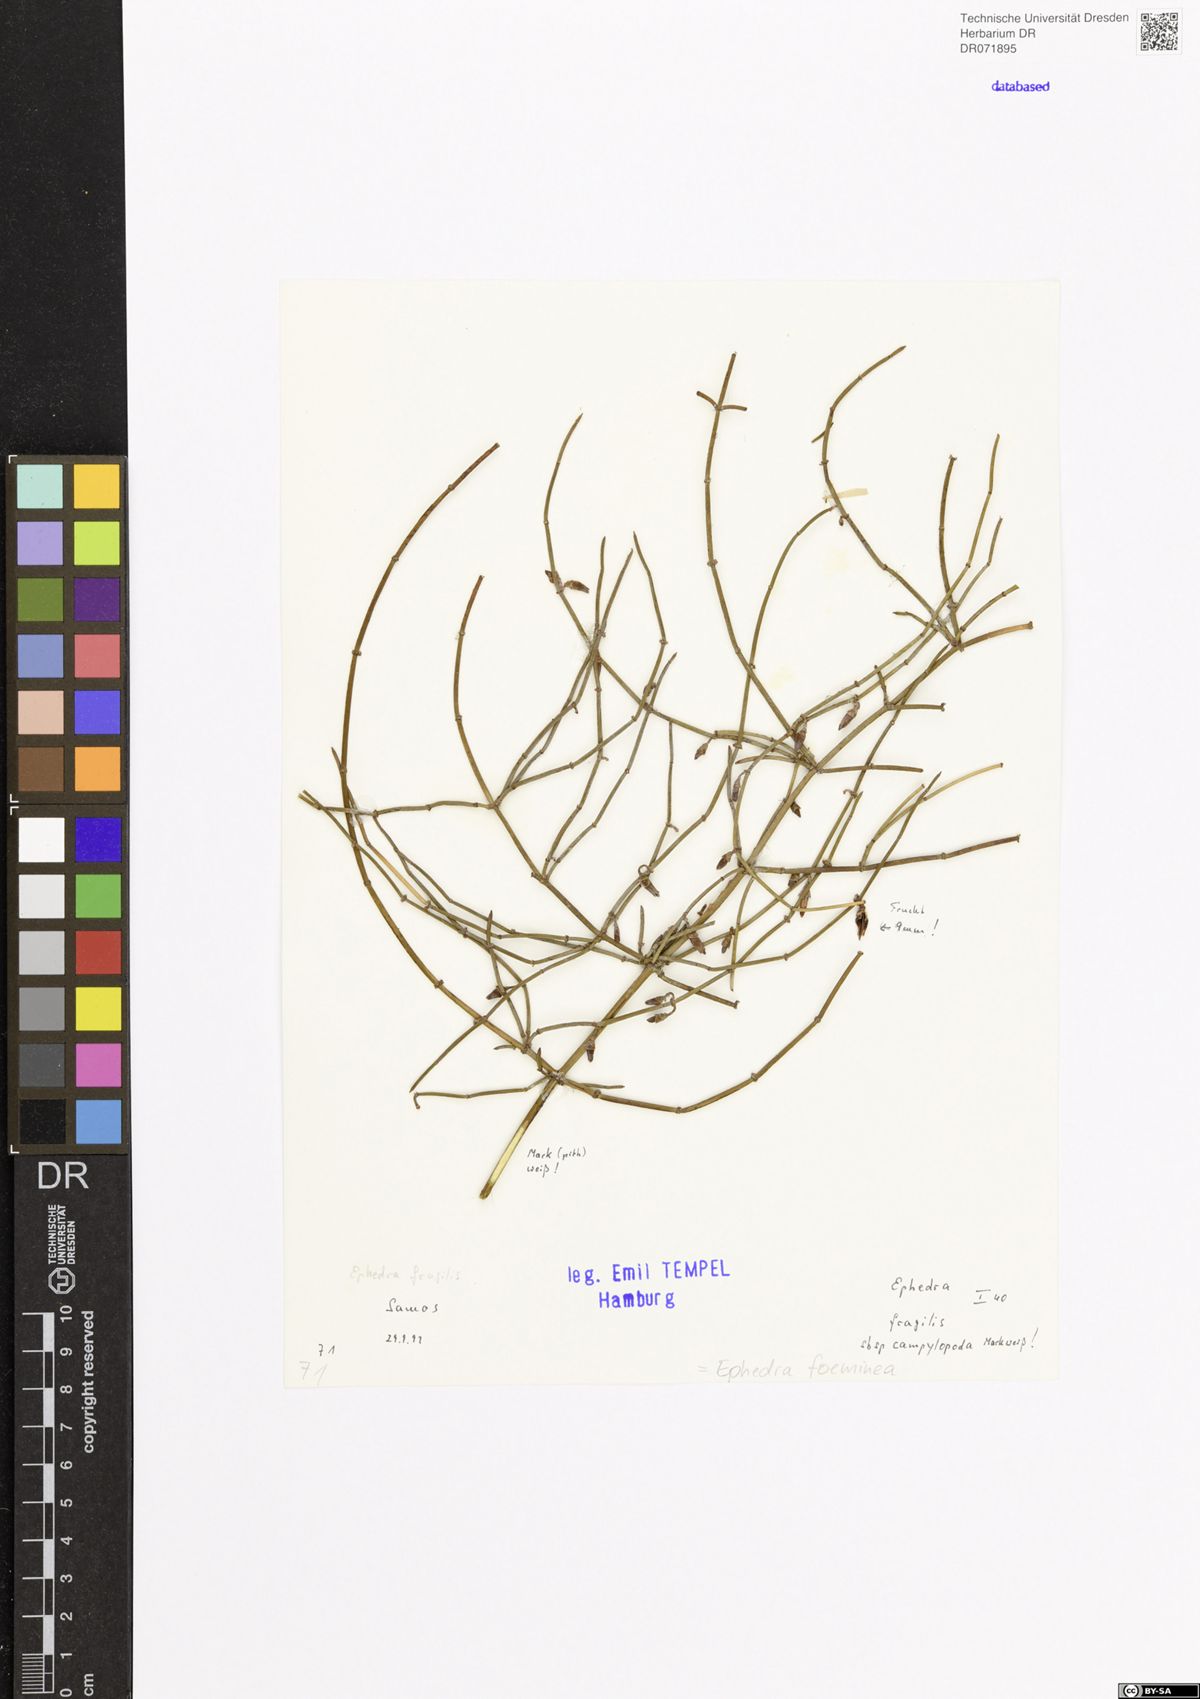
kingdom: Plantae
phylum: Tracheophyta
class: Gnetopsida
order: Ephedrales
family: Ephedraceae
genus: Ephedra
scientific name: Ephedra foeminea
